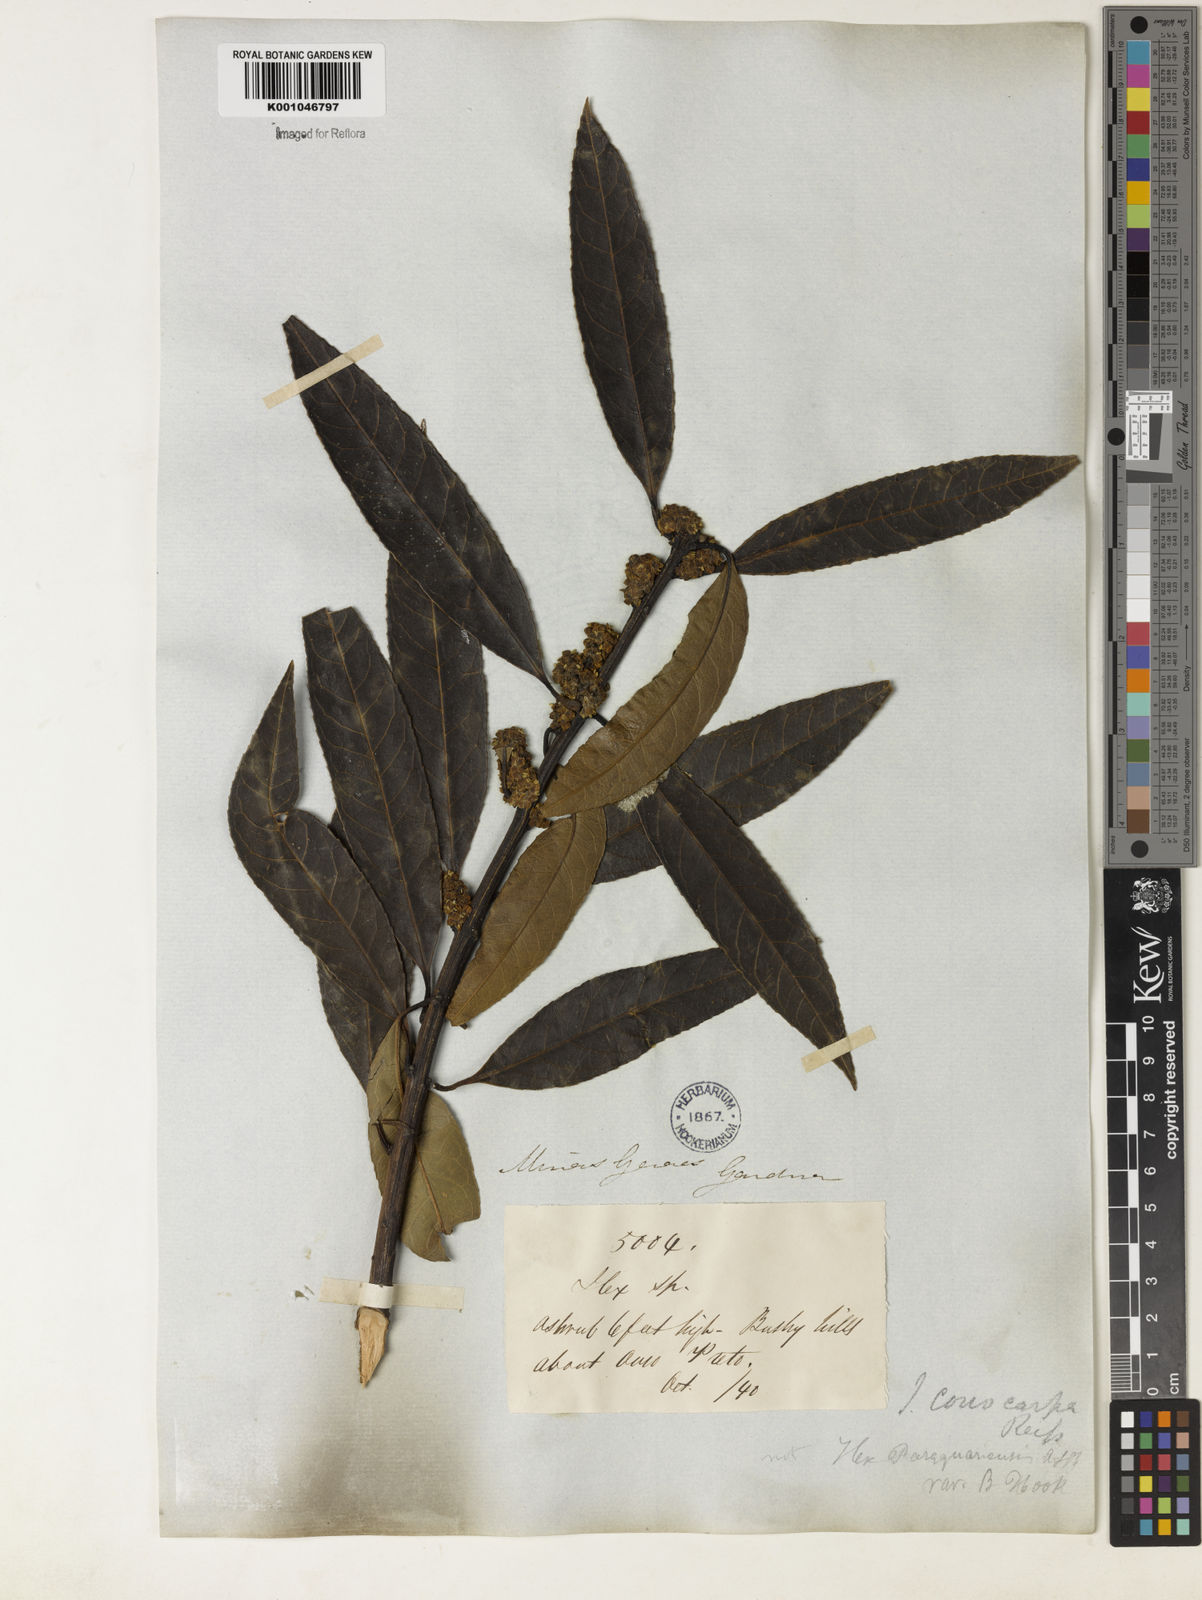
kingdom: Plantae
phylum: Tracheophyta
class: Magnoliopsida
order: Aquifoliales
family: Aquifoliaceae
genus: Ilex
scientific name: Ilex conocarpa
